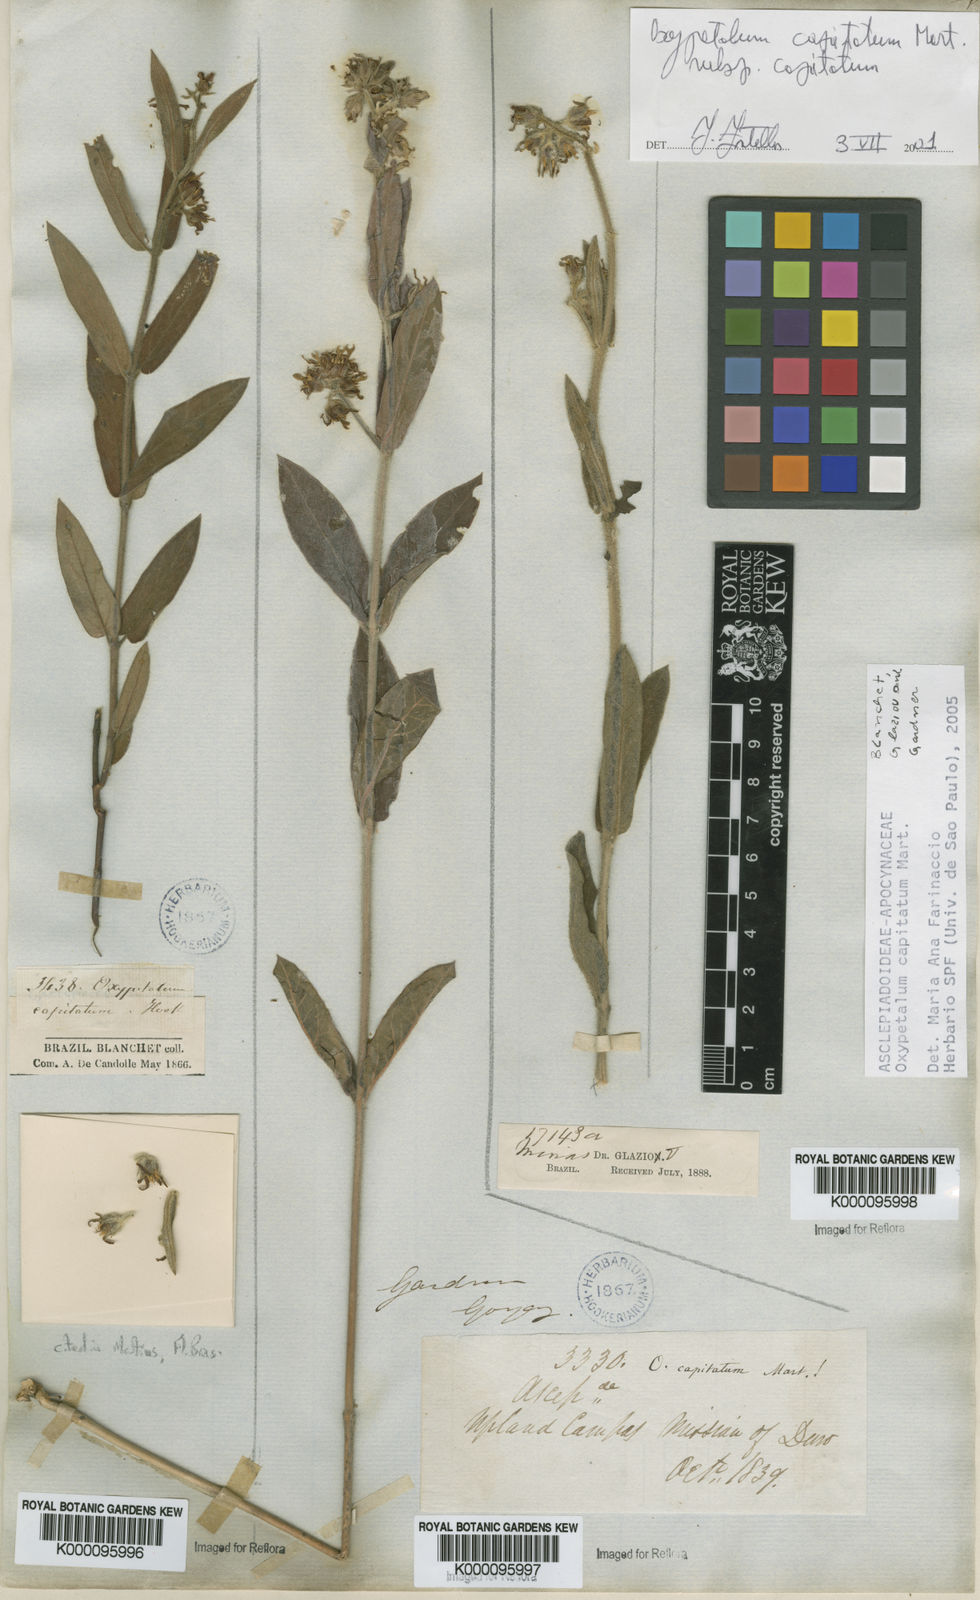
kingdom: Plantae
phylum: Tracheophyta
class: Magnoliopsida
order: Gentianales
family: Apocynaceae
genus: Oxypetalum
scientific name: Oxypetalum capitatum
